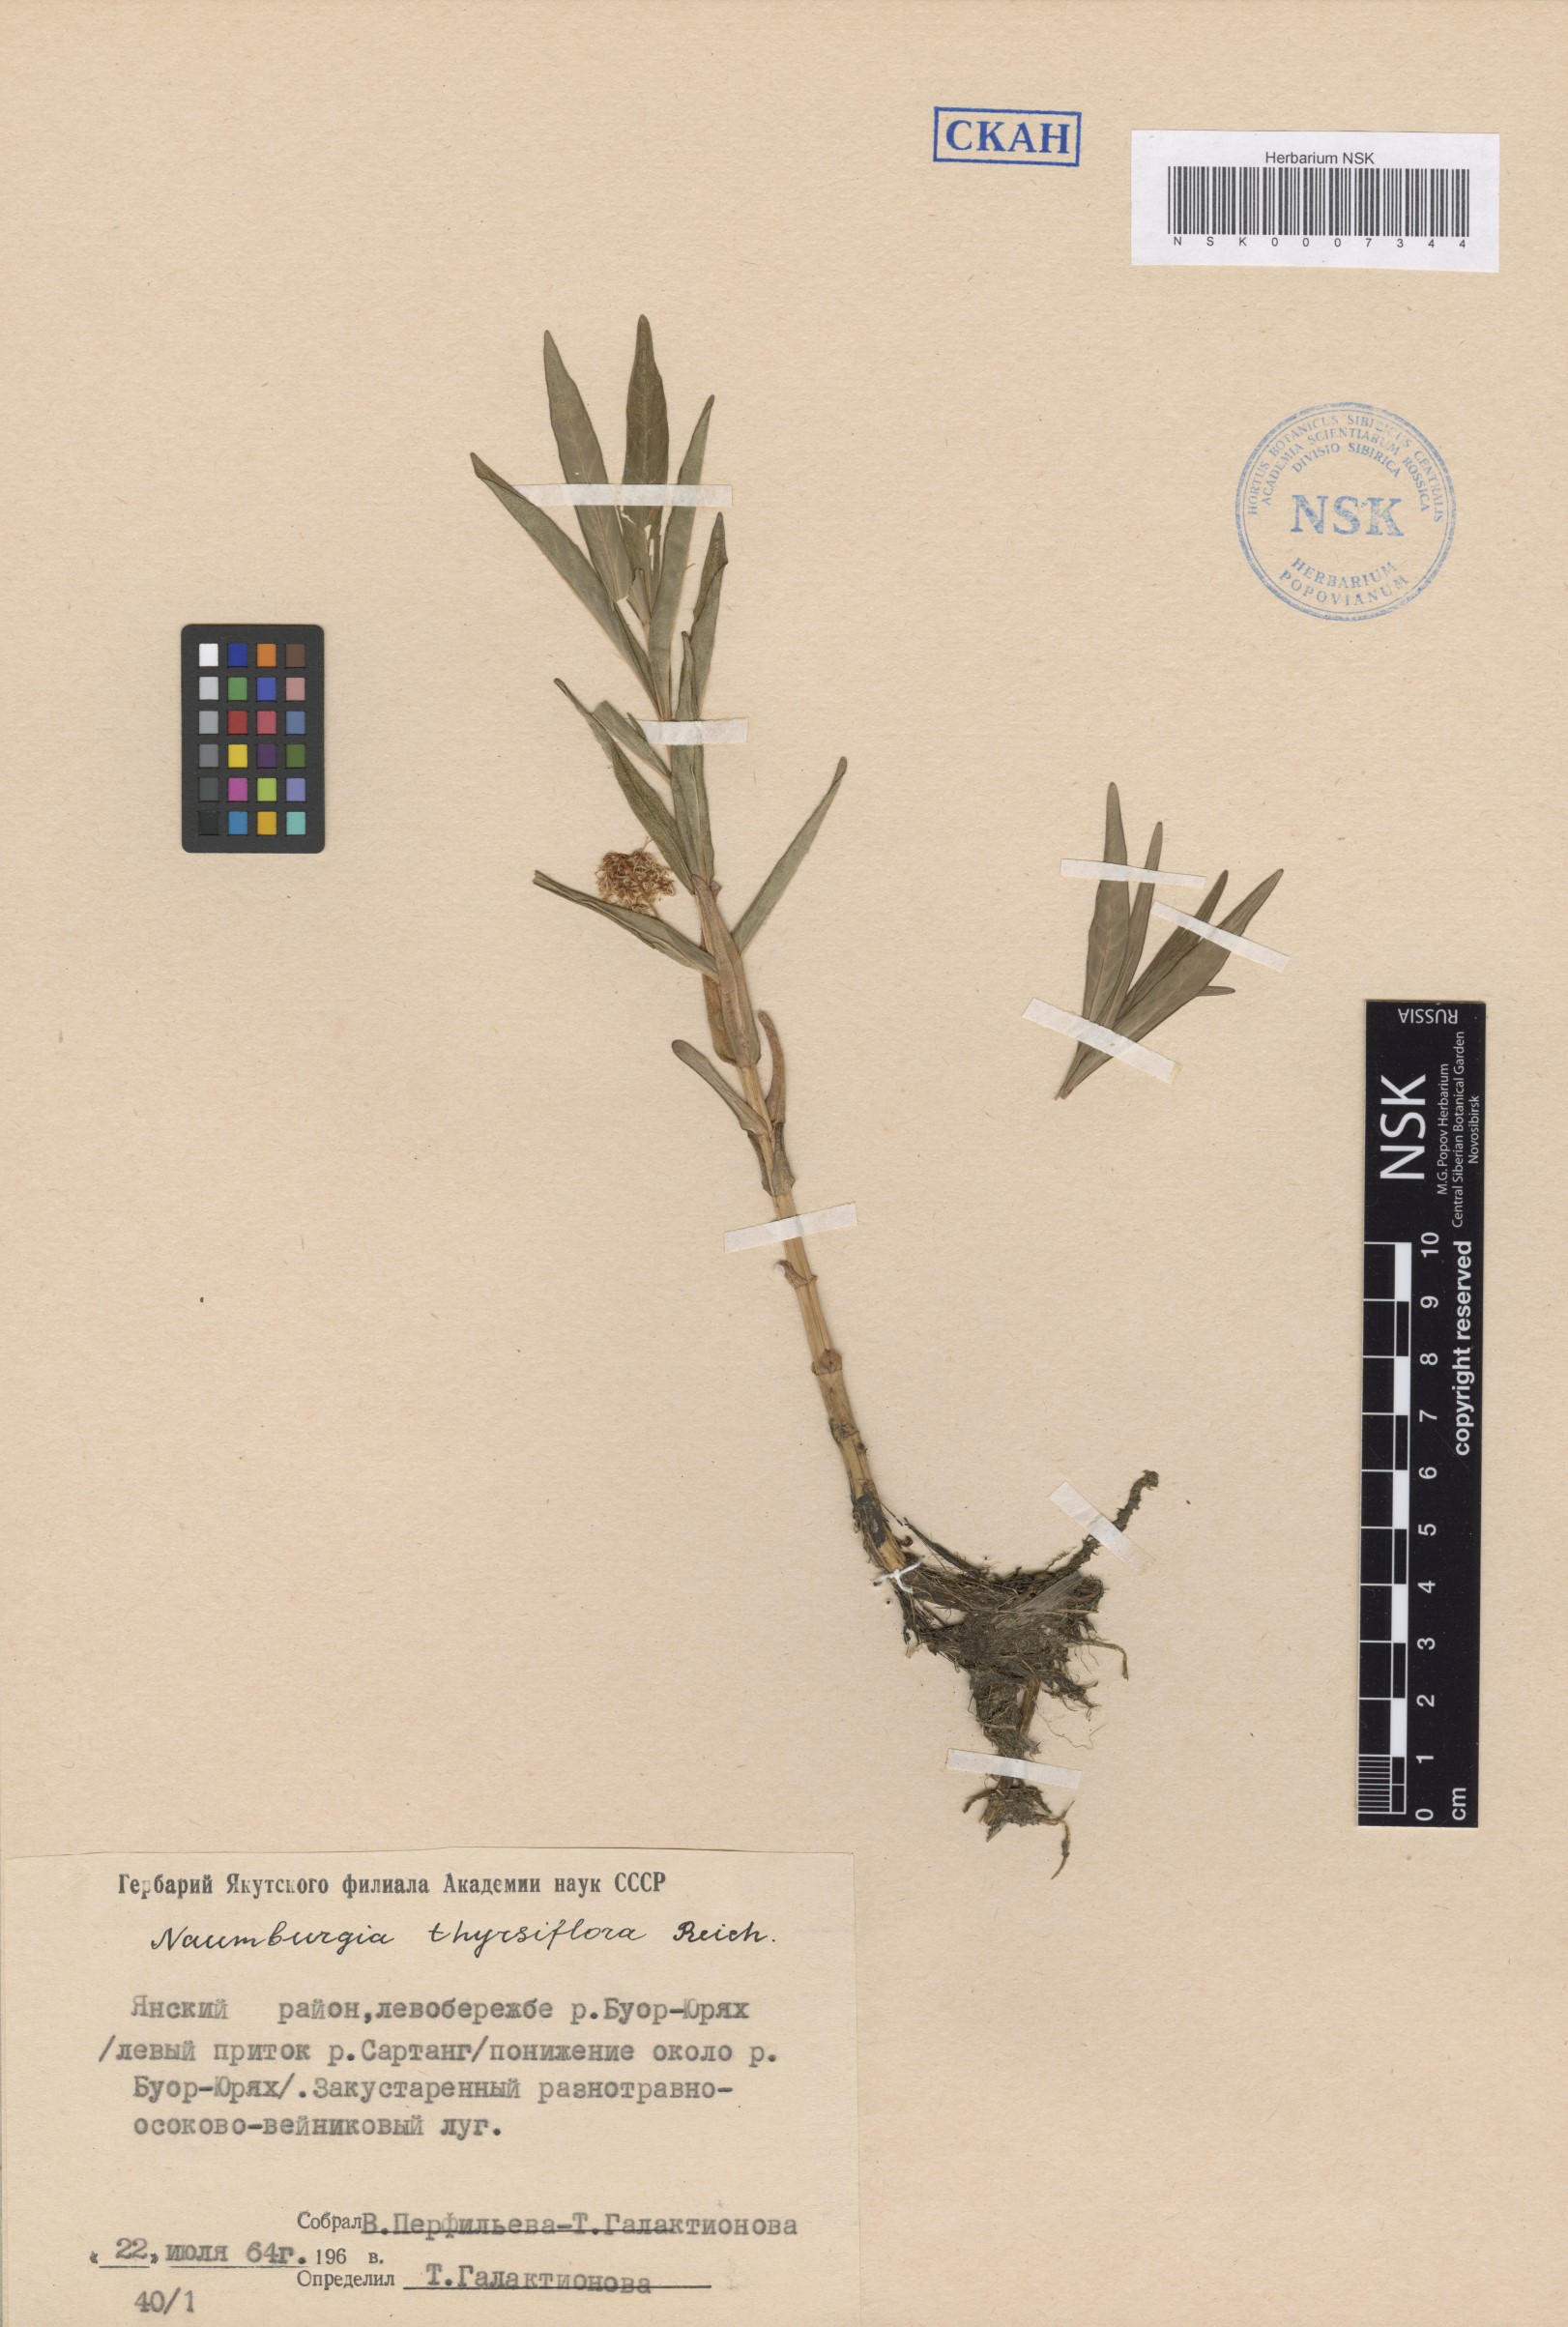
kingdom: Plantae
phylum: Tracheophyta
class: Magnoliopsida
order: Ericales
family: Primulaceae
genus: Lysimachia
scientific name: Lysimachia thyrsiflora
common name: Tufted loosestrife
